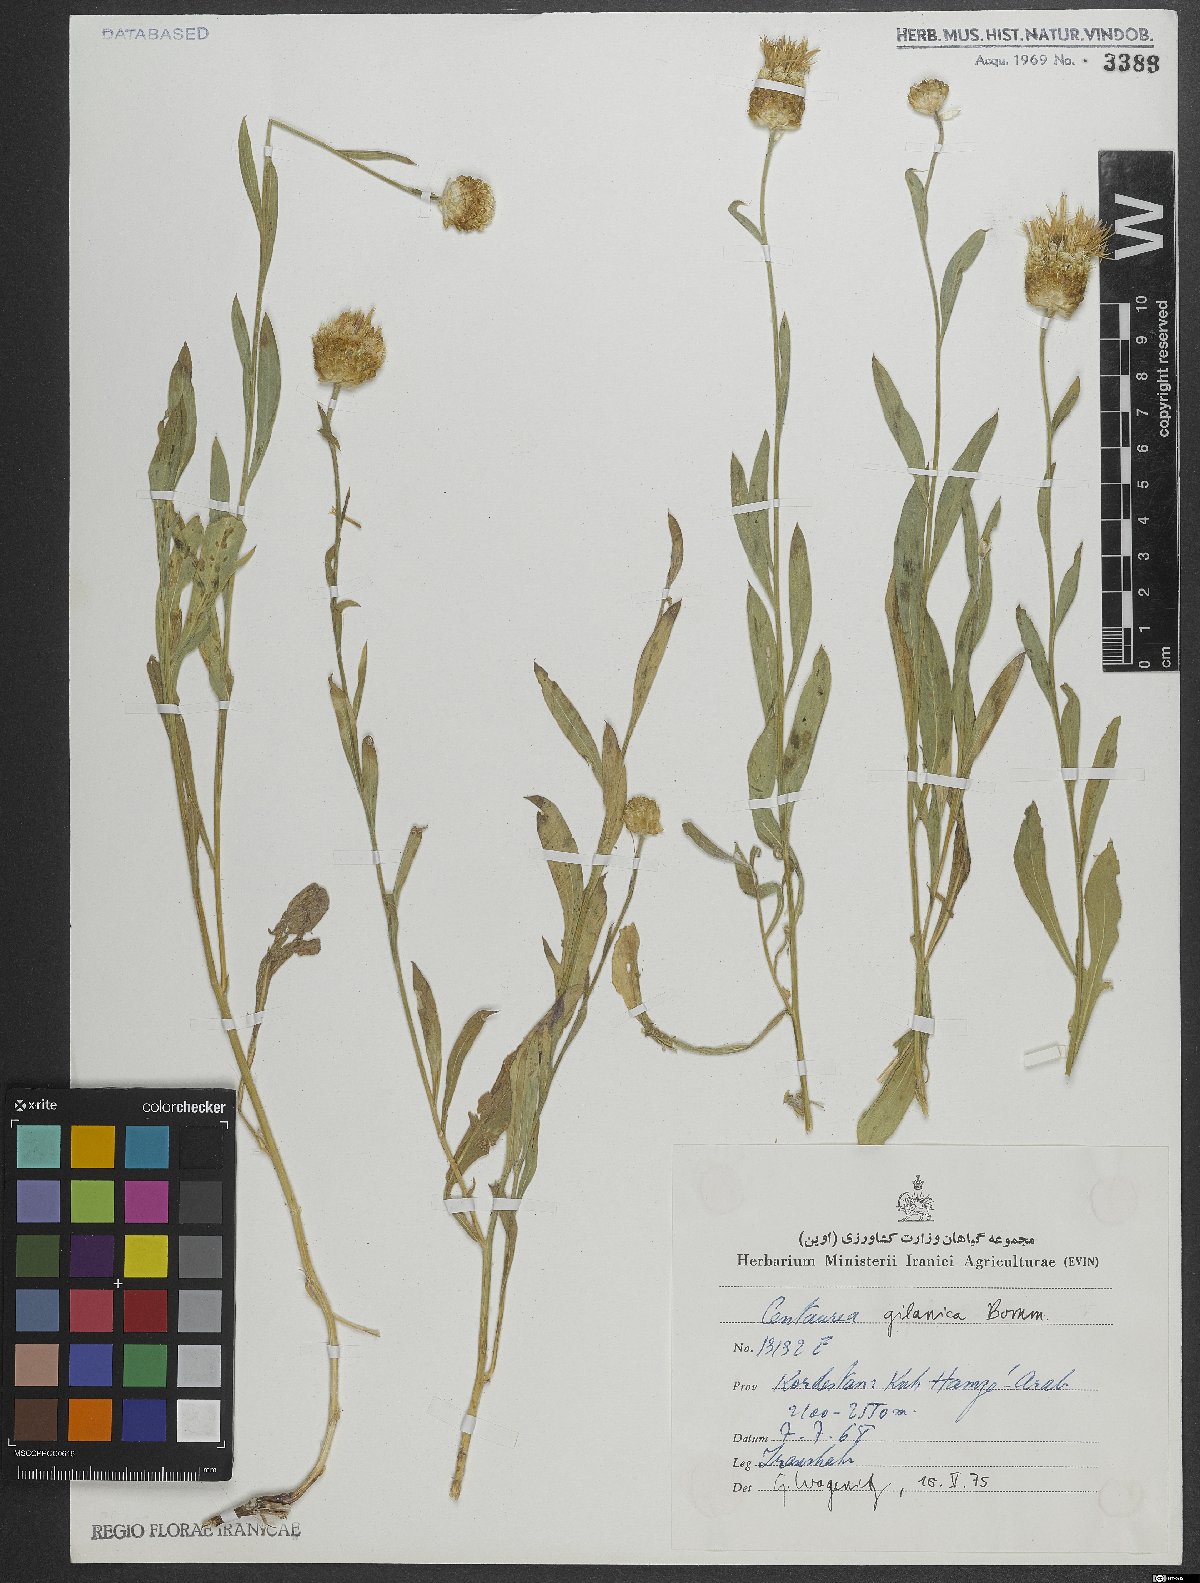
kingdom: Plantae
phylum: Tracheophyta
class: Magnoliopsida
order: Asterales
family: Asteraceae
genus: Psephellus
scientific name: Psephellus gilanicus
